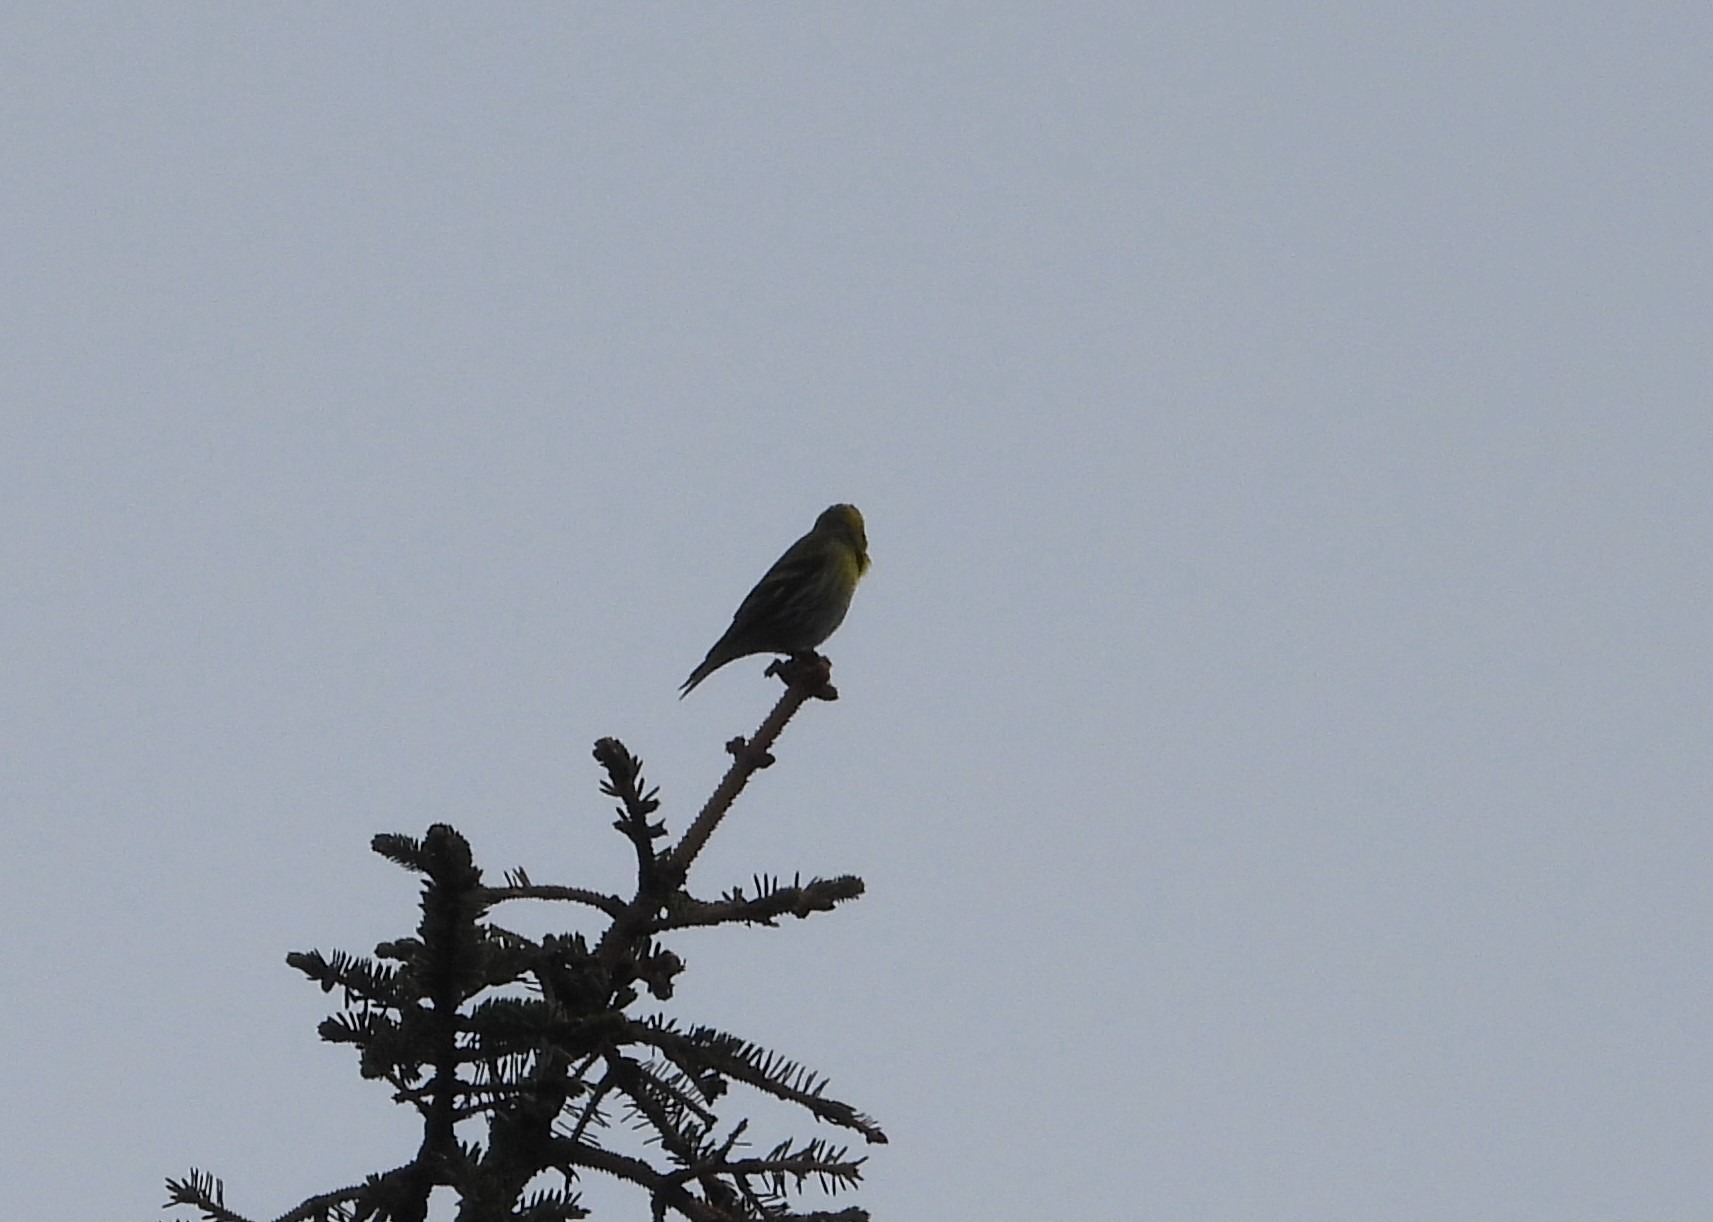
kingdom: Animalia
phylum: Chordata
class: Aves
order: Passeriformes
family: Fringillidae
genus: Spinus
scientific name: Spinus spinus
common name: Grønsisken
